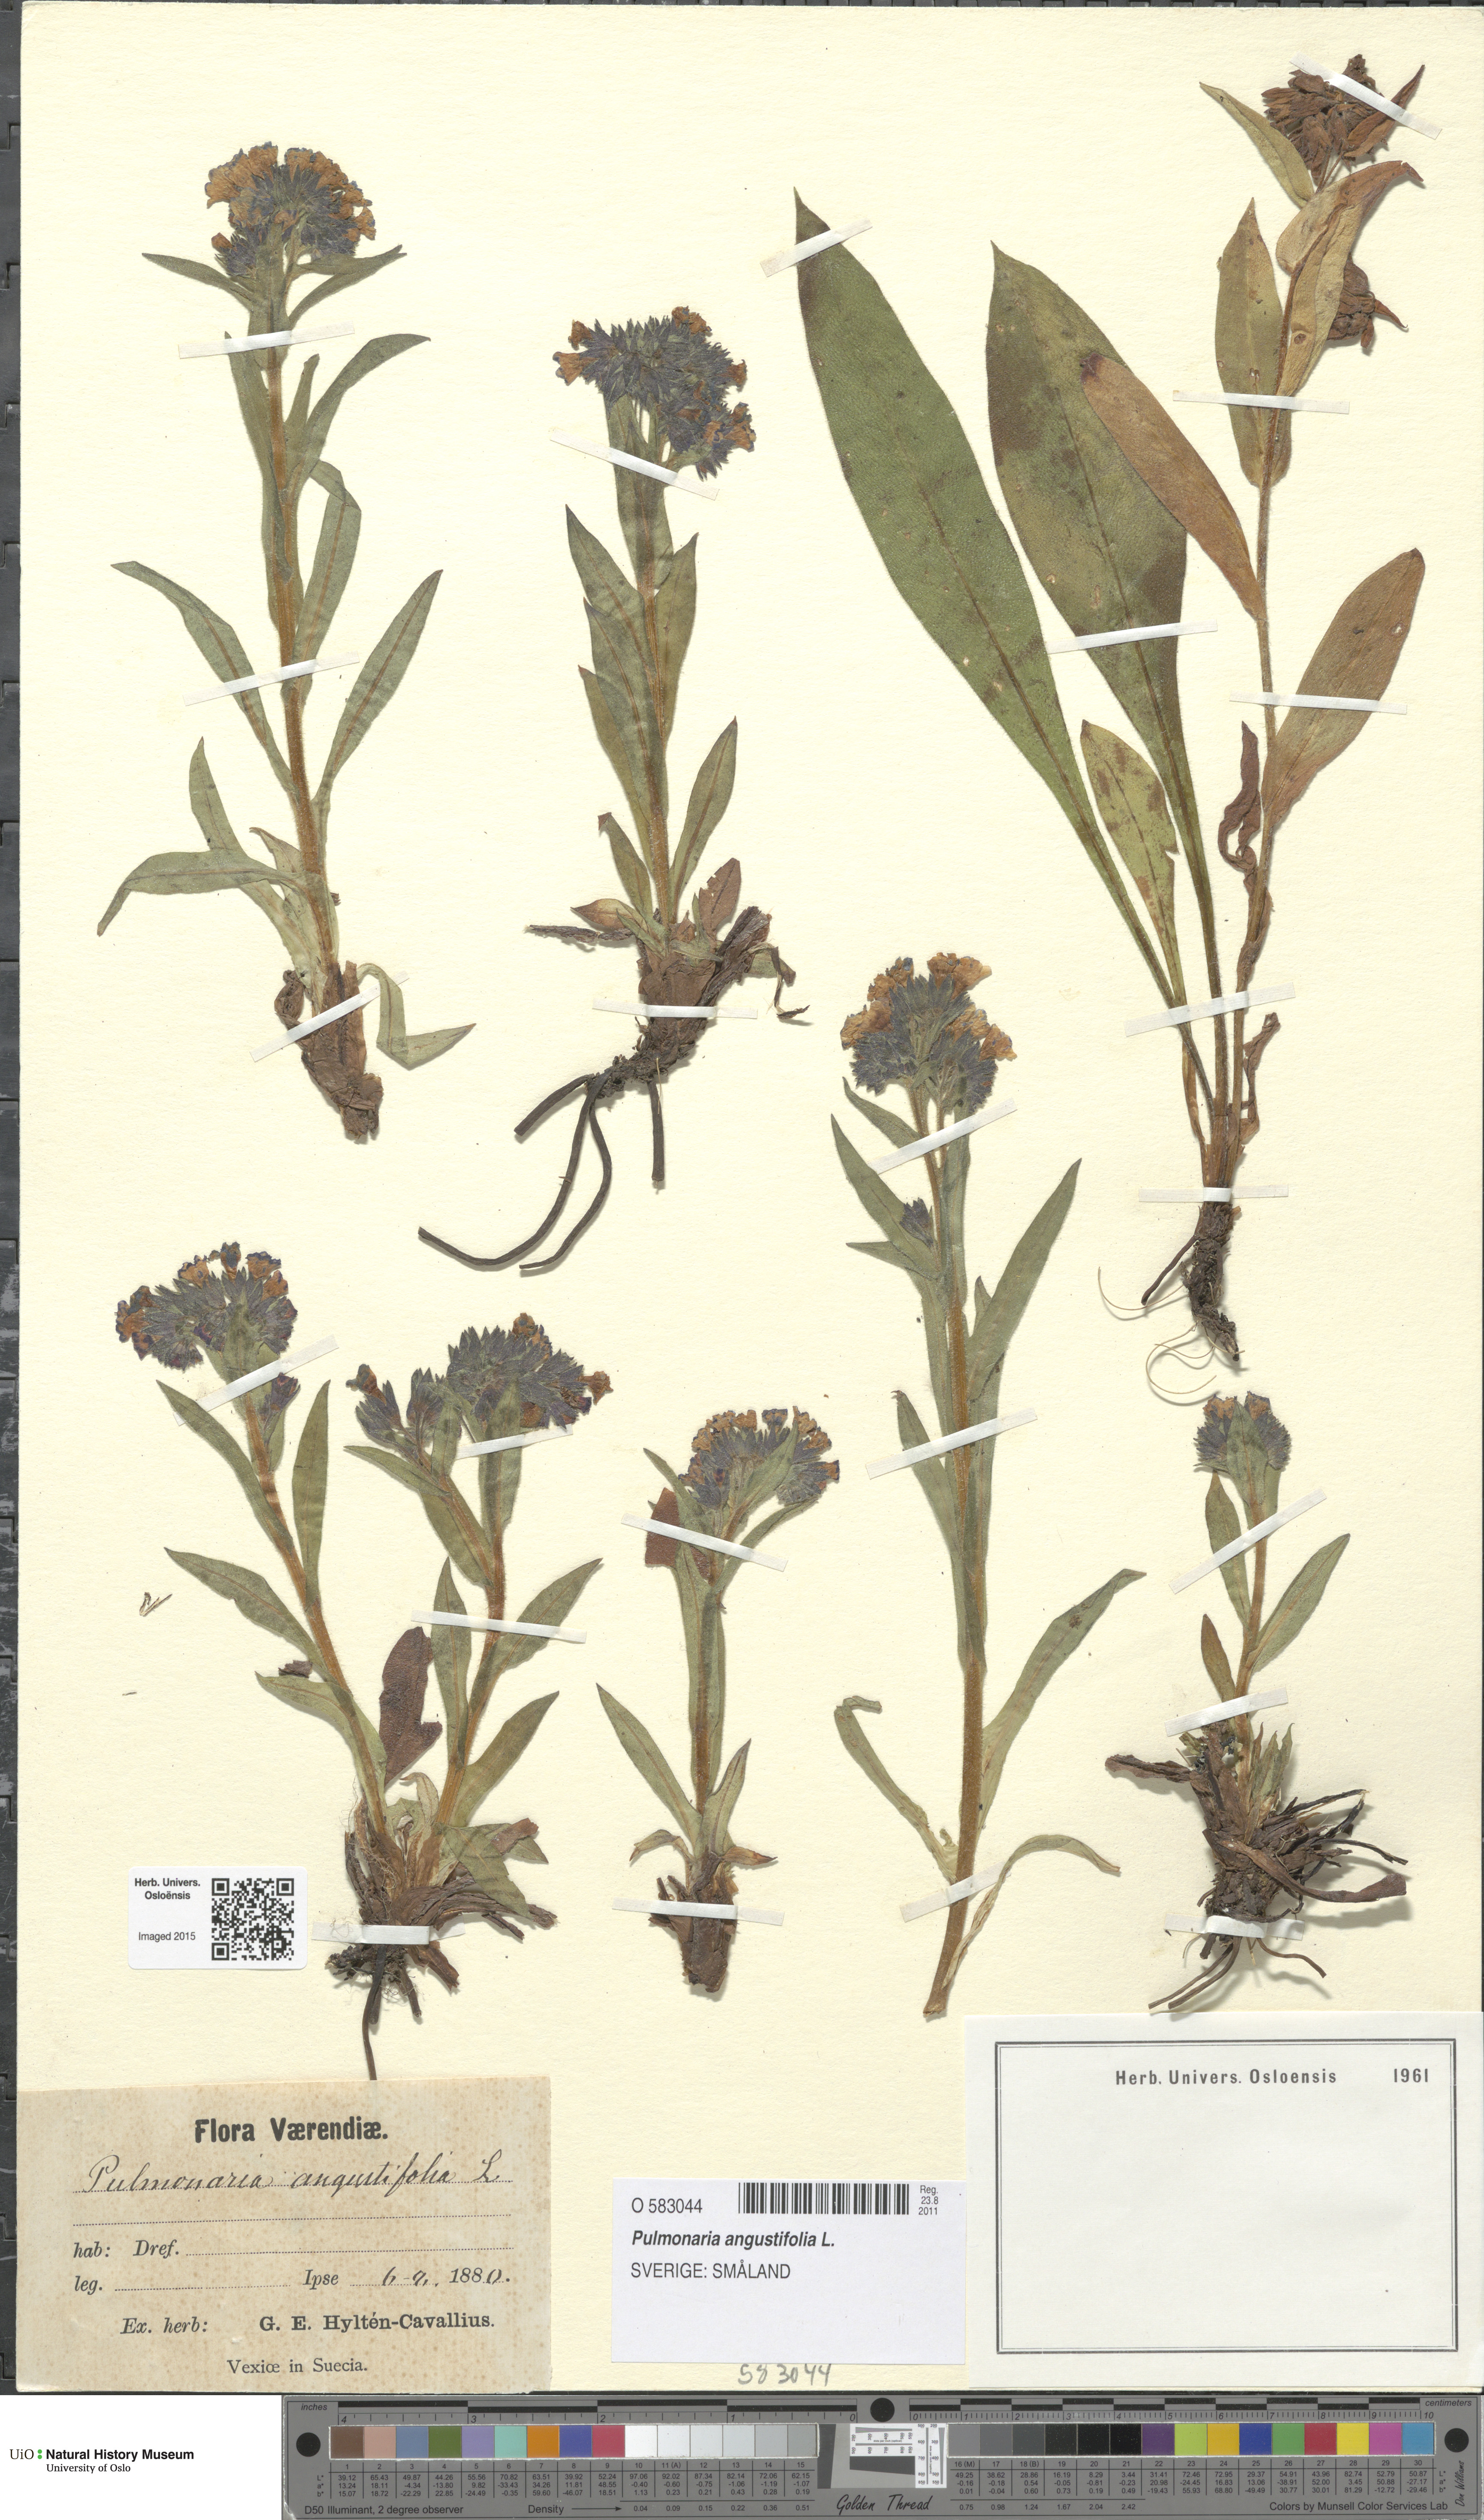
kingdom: Plantae
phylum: Tracheophyta
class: Magnoliopsida
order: Boraginales
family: Boraginaceae
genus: Pulmonaria
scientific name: Pulmonaria angustifolia
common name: Blue cowslip
